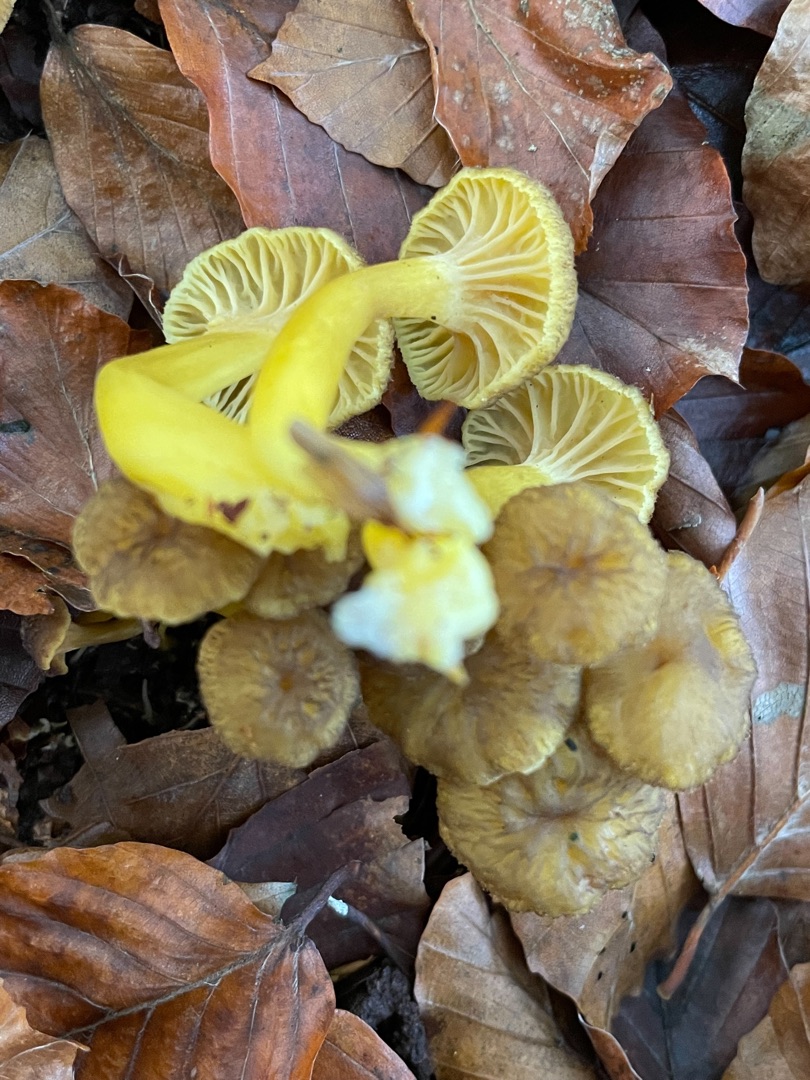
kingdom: Fungi
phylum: Basidiomycota
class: Agaricomycetes
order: Cantharellales
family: Hydnaceae
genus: Craterellus
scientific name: Craterellus tubaeformis
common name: Tragt-kantarel
